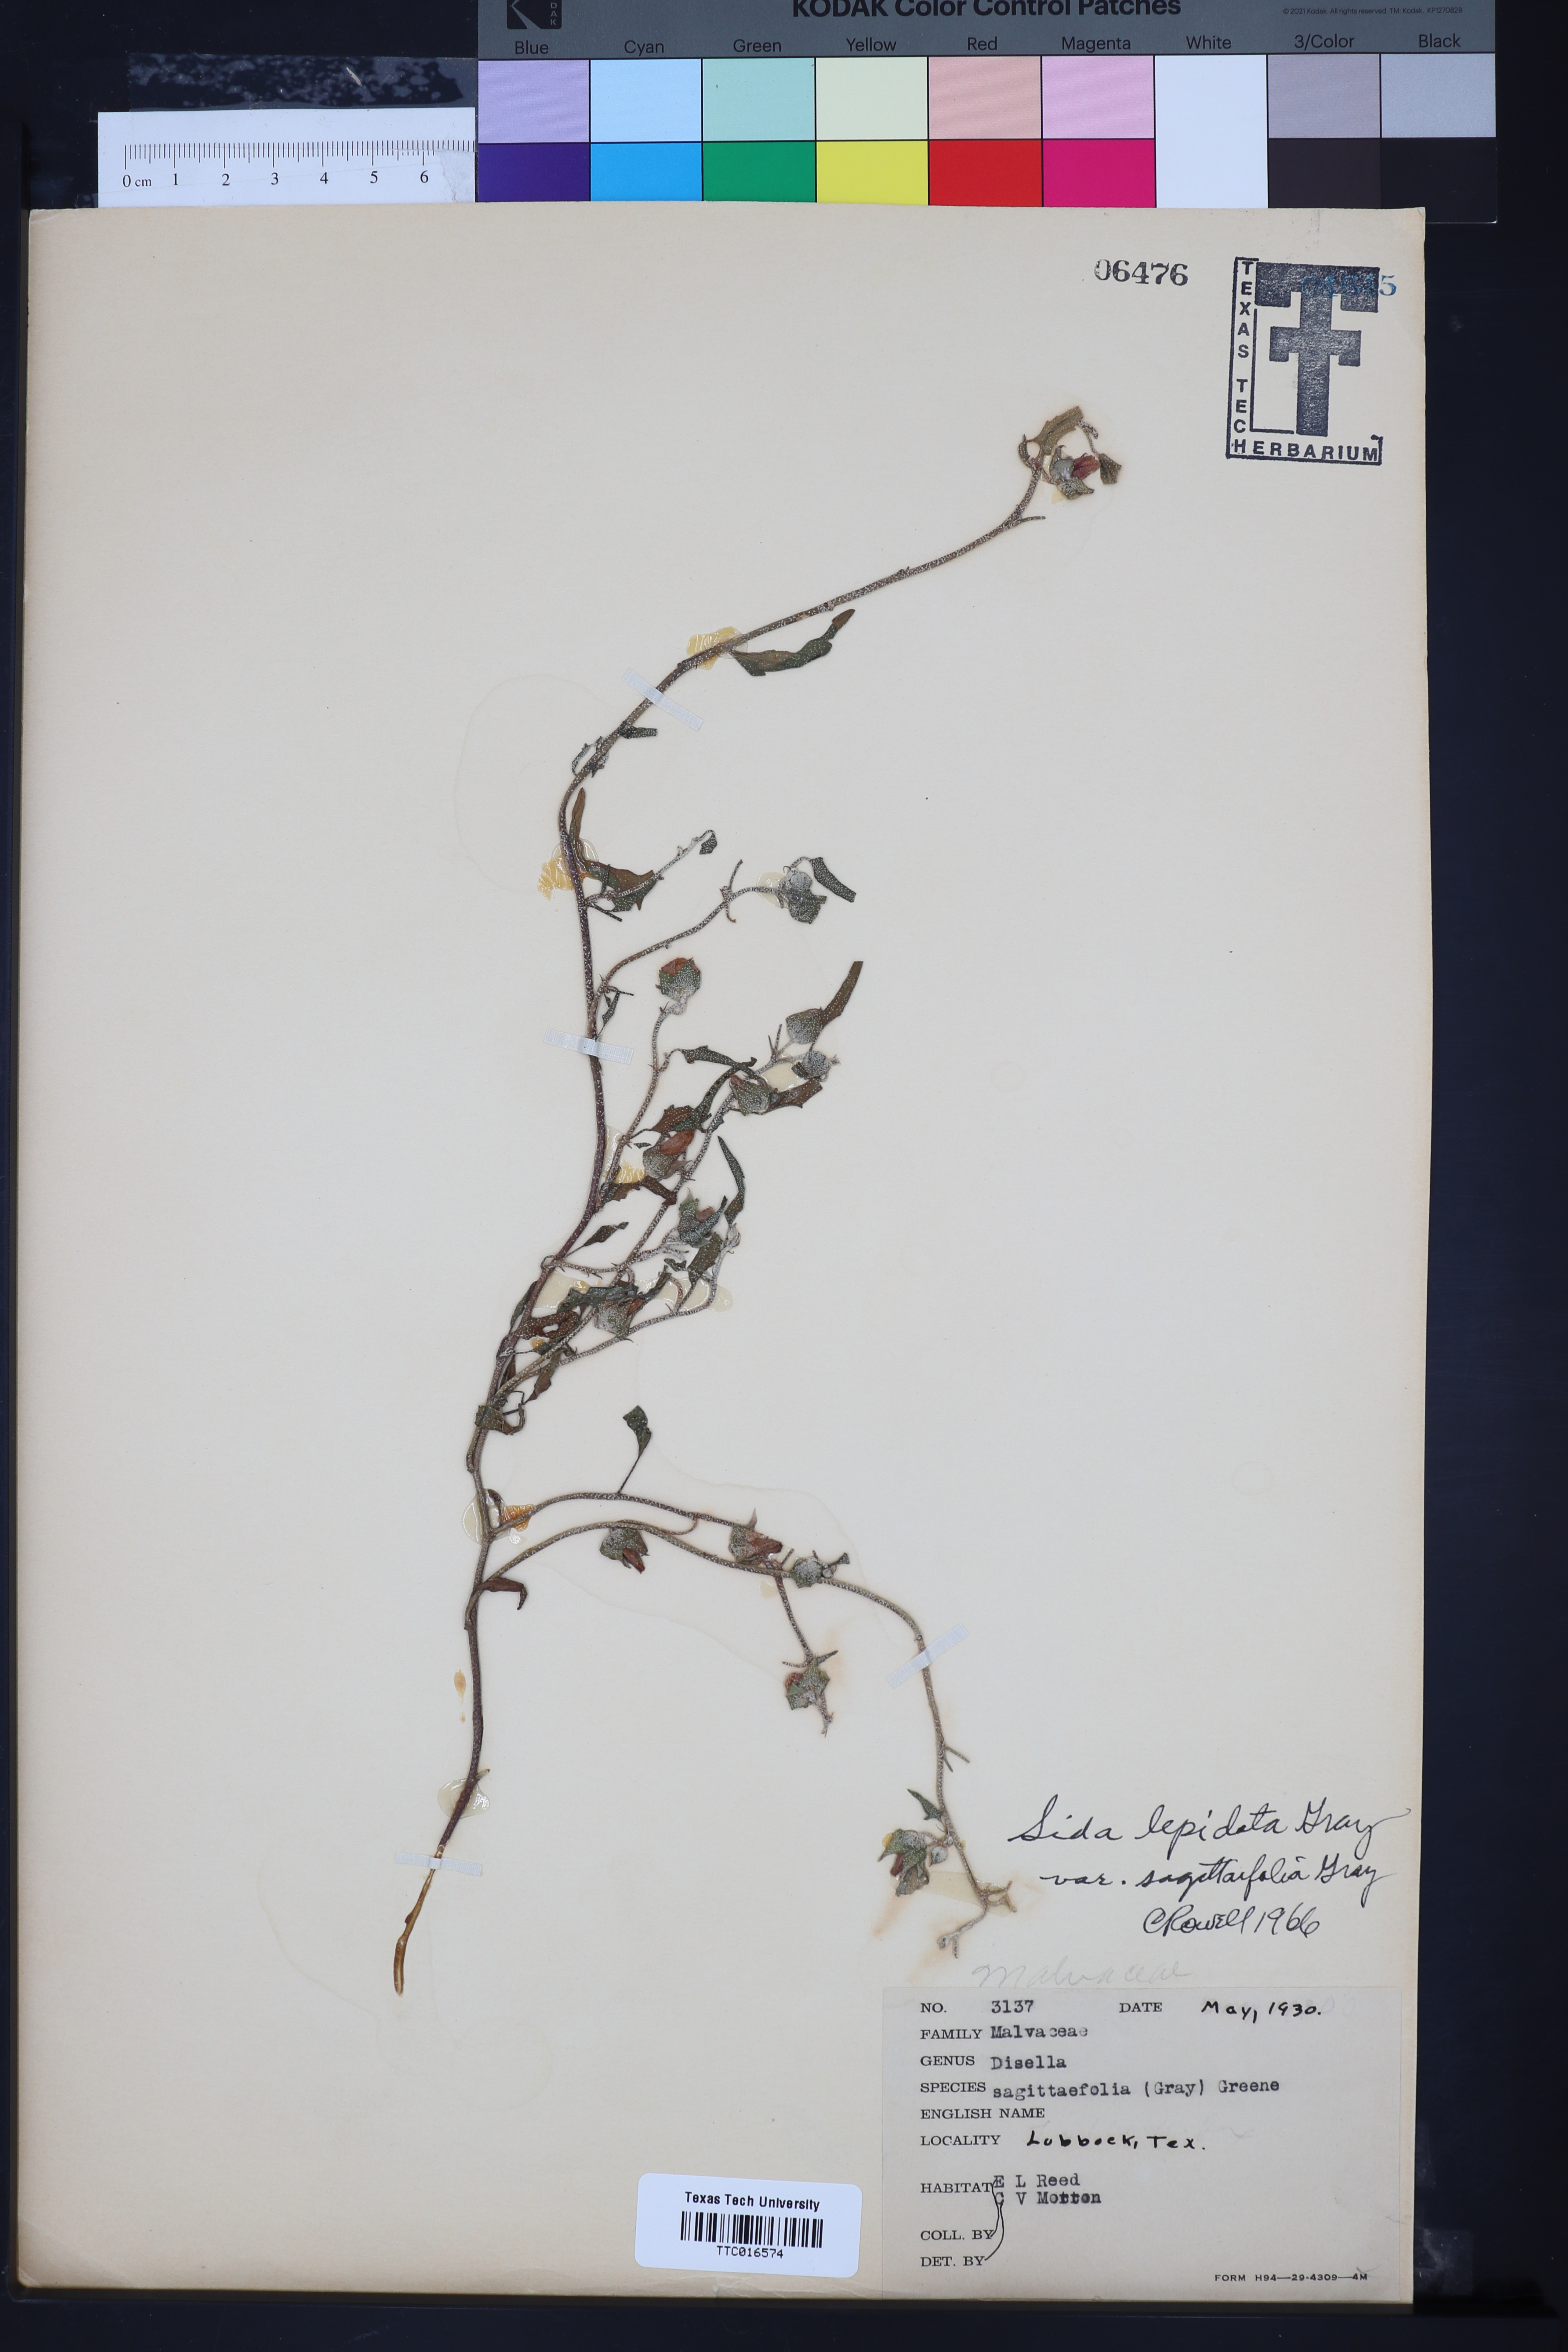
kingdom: Plantae
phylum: Tracheophyta
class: Magnoliopsida
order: Malvales
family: Malvaceae
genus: Malvella
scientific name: Malvella sagittifolia
